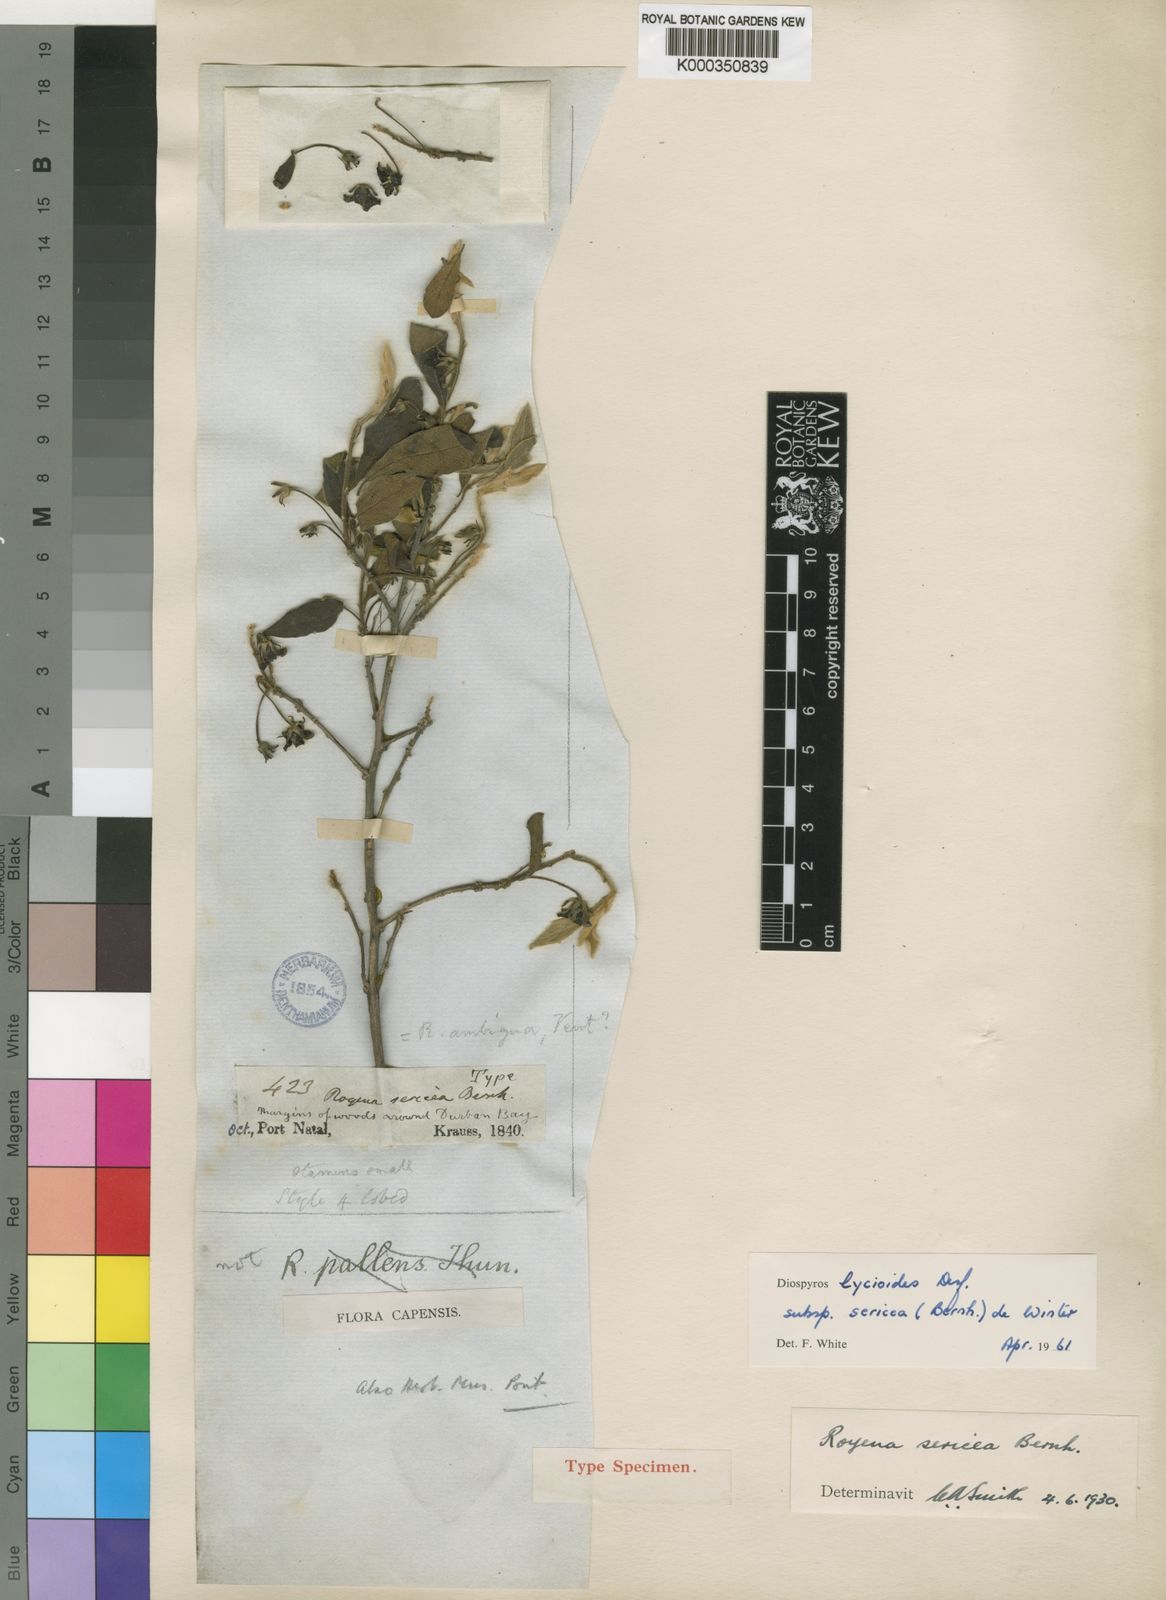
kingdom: Plantae
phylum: Tracheophyta
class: Magnoliopsida
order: Ericales
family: Ebenaceae
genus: Diospyros
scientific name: Diospyros lycioides
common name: Red star apple
